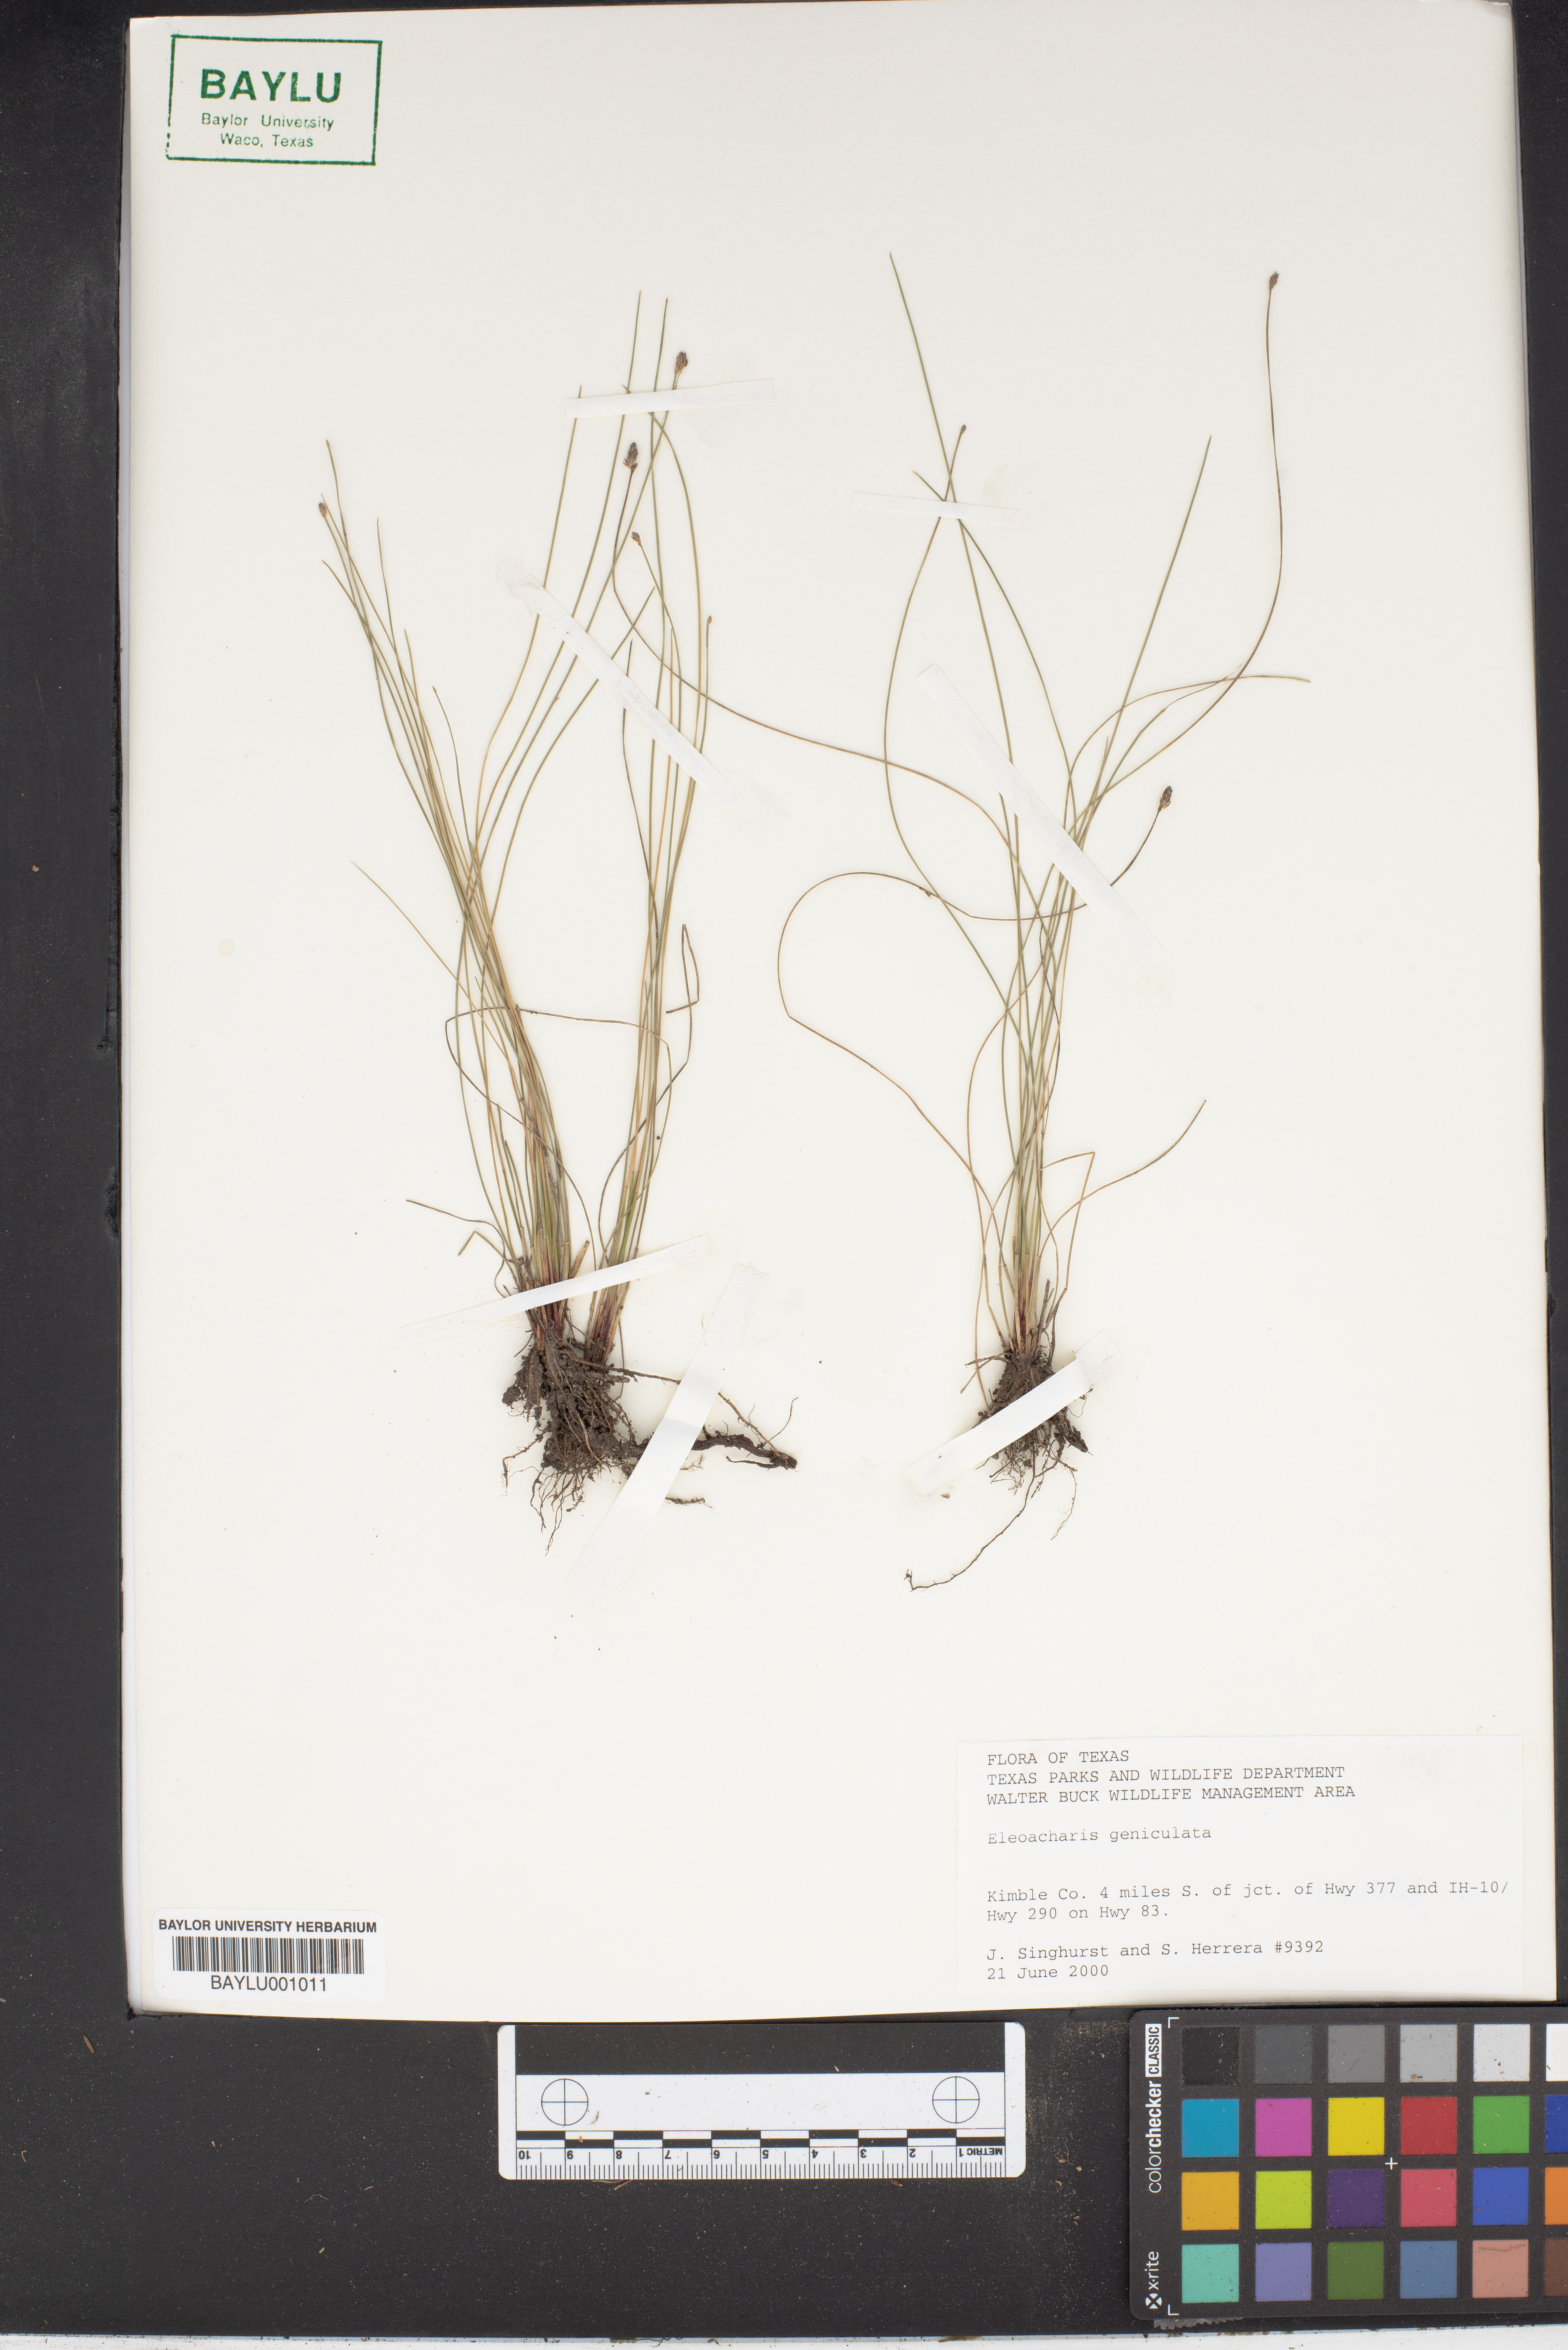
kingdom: Plantae
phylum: Tracheophyta
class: Liliopsida
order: Poales
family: Cyperaceae
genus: Eleocharis
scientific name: Eleocharis geniculata
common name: Canada spikesedge
